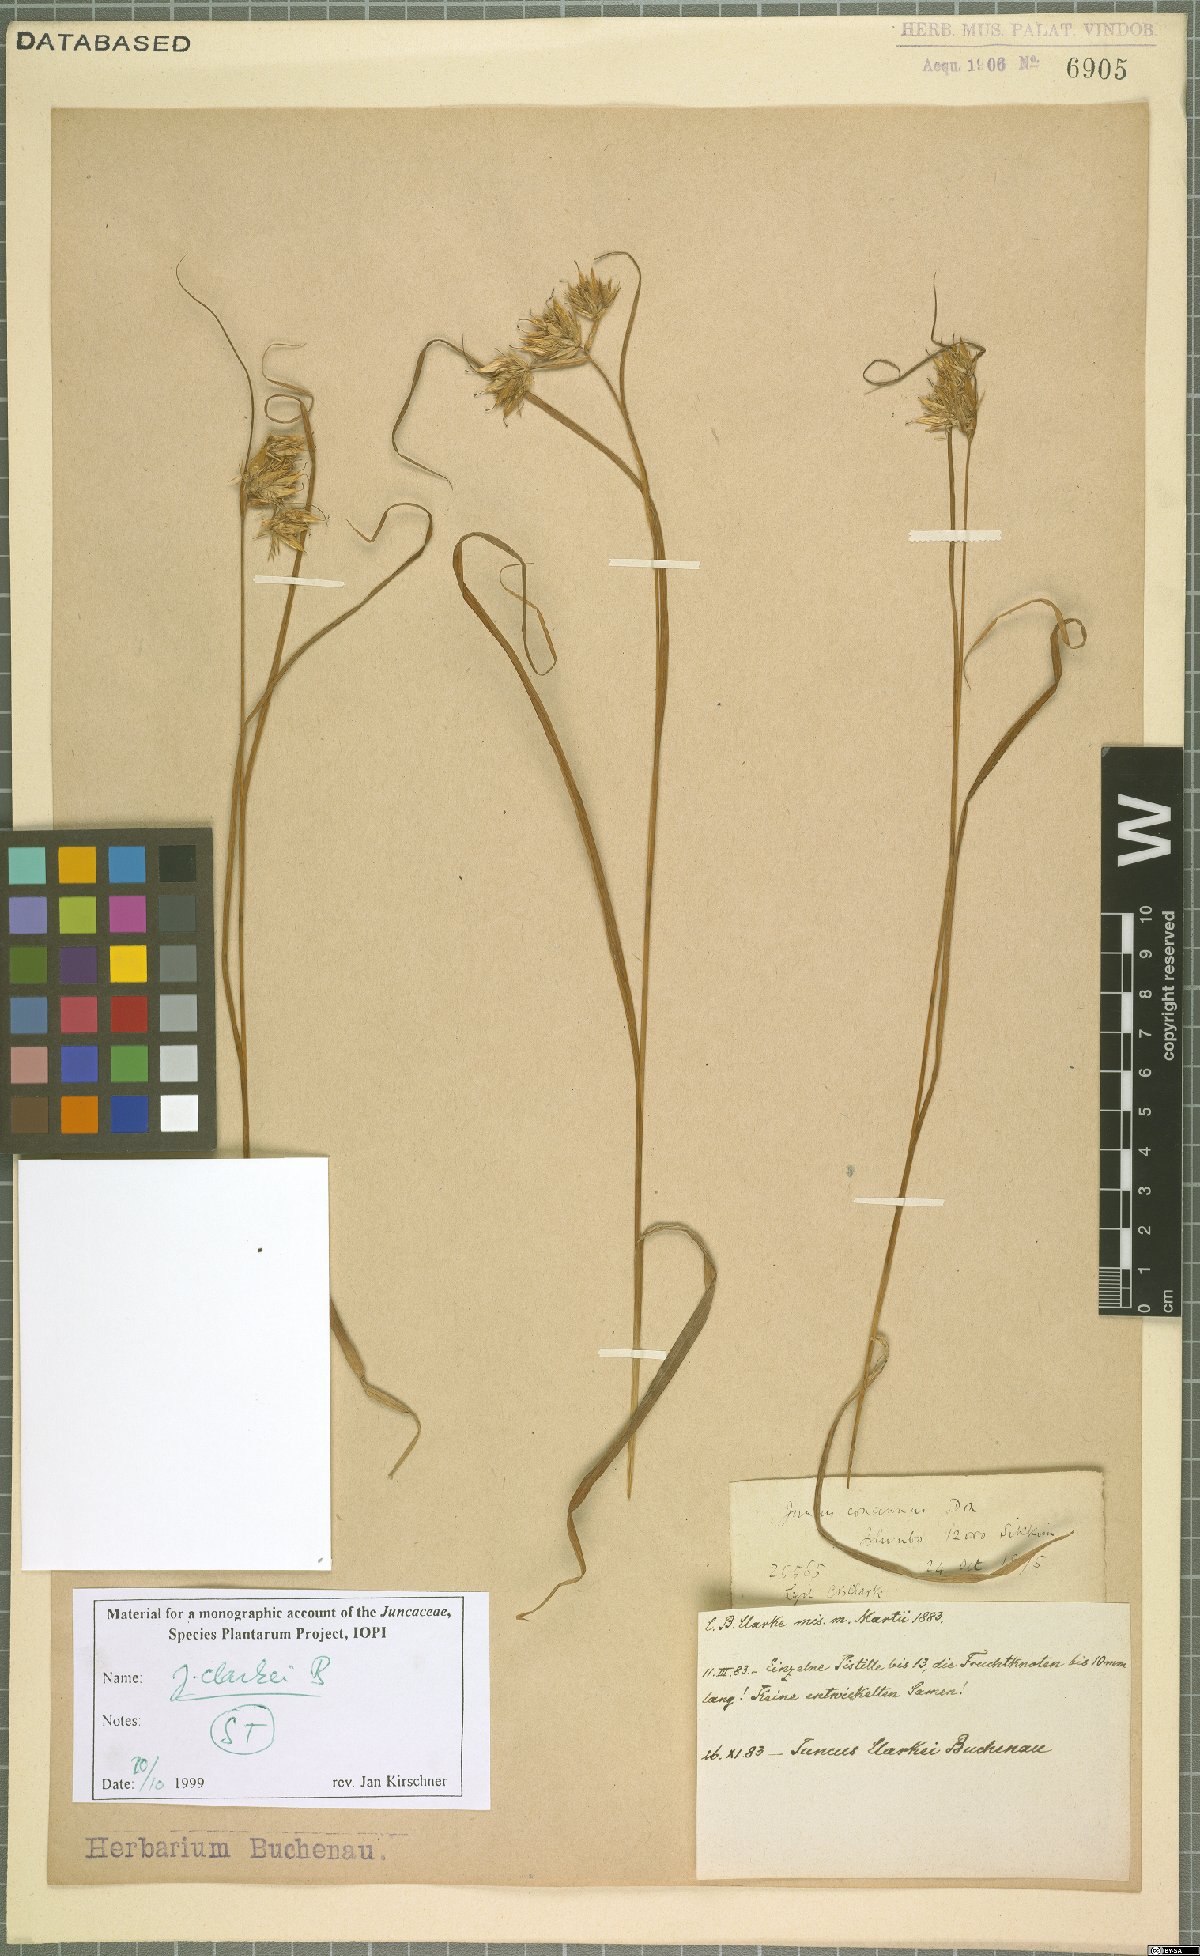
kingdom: Plantae
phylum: Tracheophyta
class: Liliopsida
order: Poales
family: Juncaceae
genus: Juncus
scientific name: Juncus clarkei
